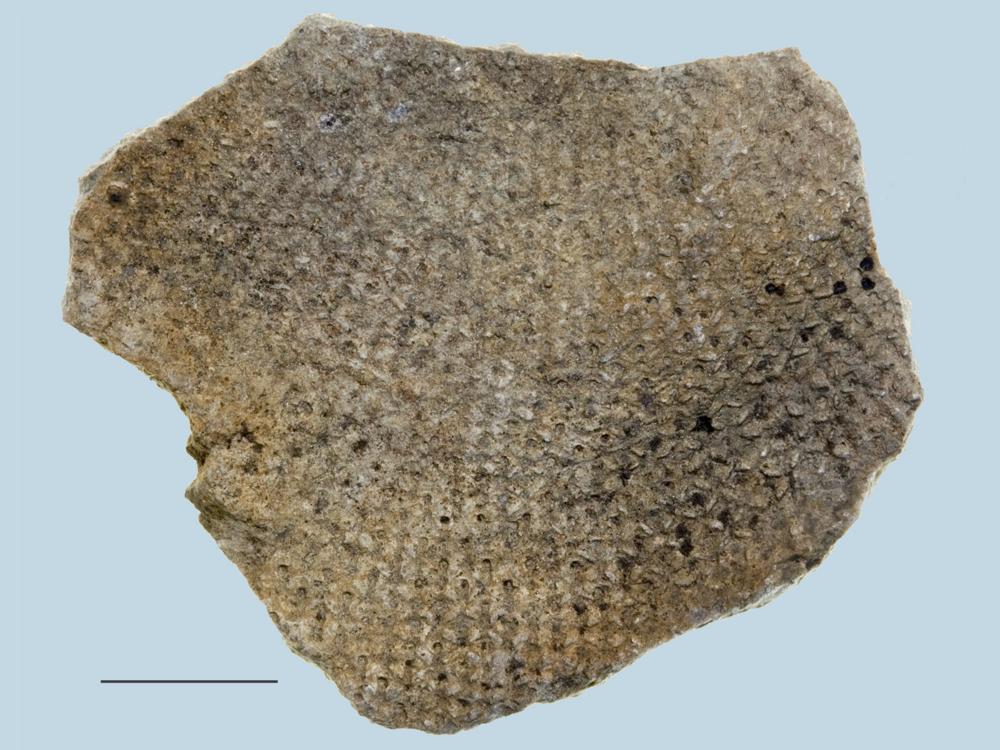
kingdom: Plantae
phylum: Chlorophyta
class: Chlorophyceae
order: Receptaculitales
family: Receptaculitaceae
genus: Receptaculites
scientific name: Receptaculites
